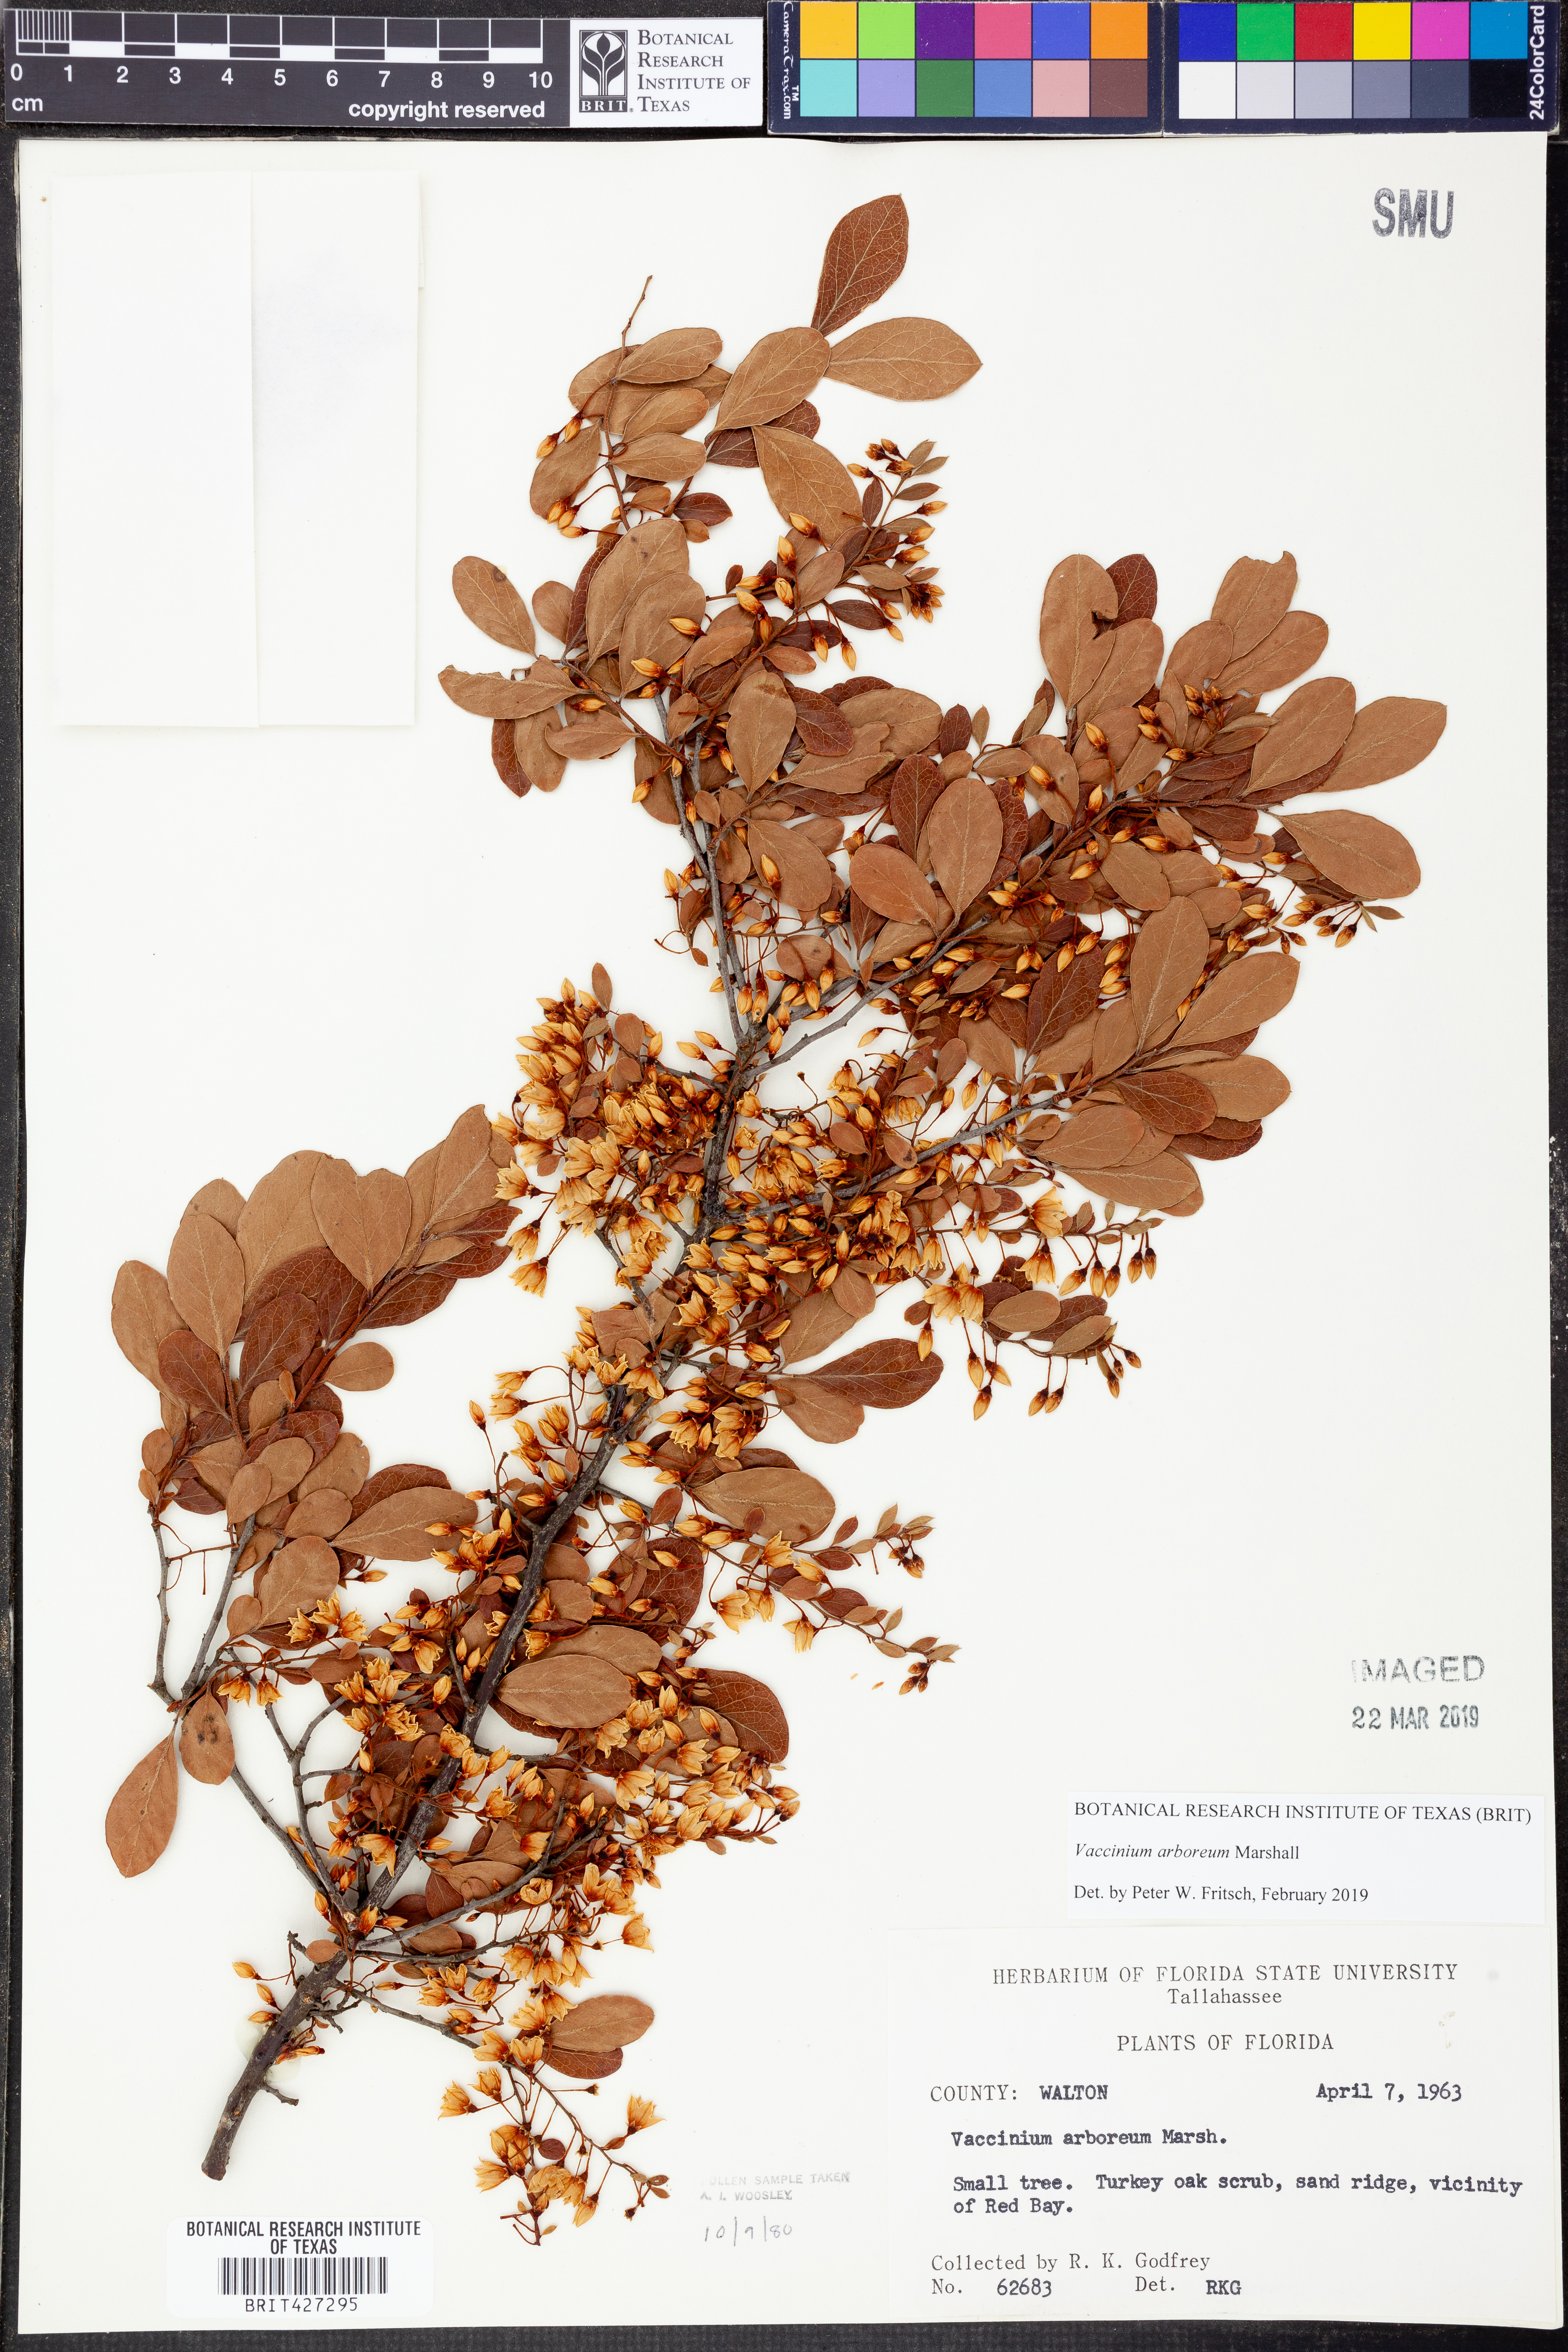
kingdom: Plantae
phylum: Tracheophyta
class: Magnoliopsida
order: Ericales
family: Ericaceae
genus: Vaccinium
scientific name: Vaccinium arboreum
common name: Farkleberry
